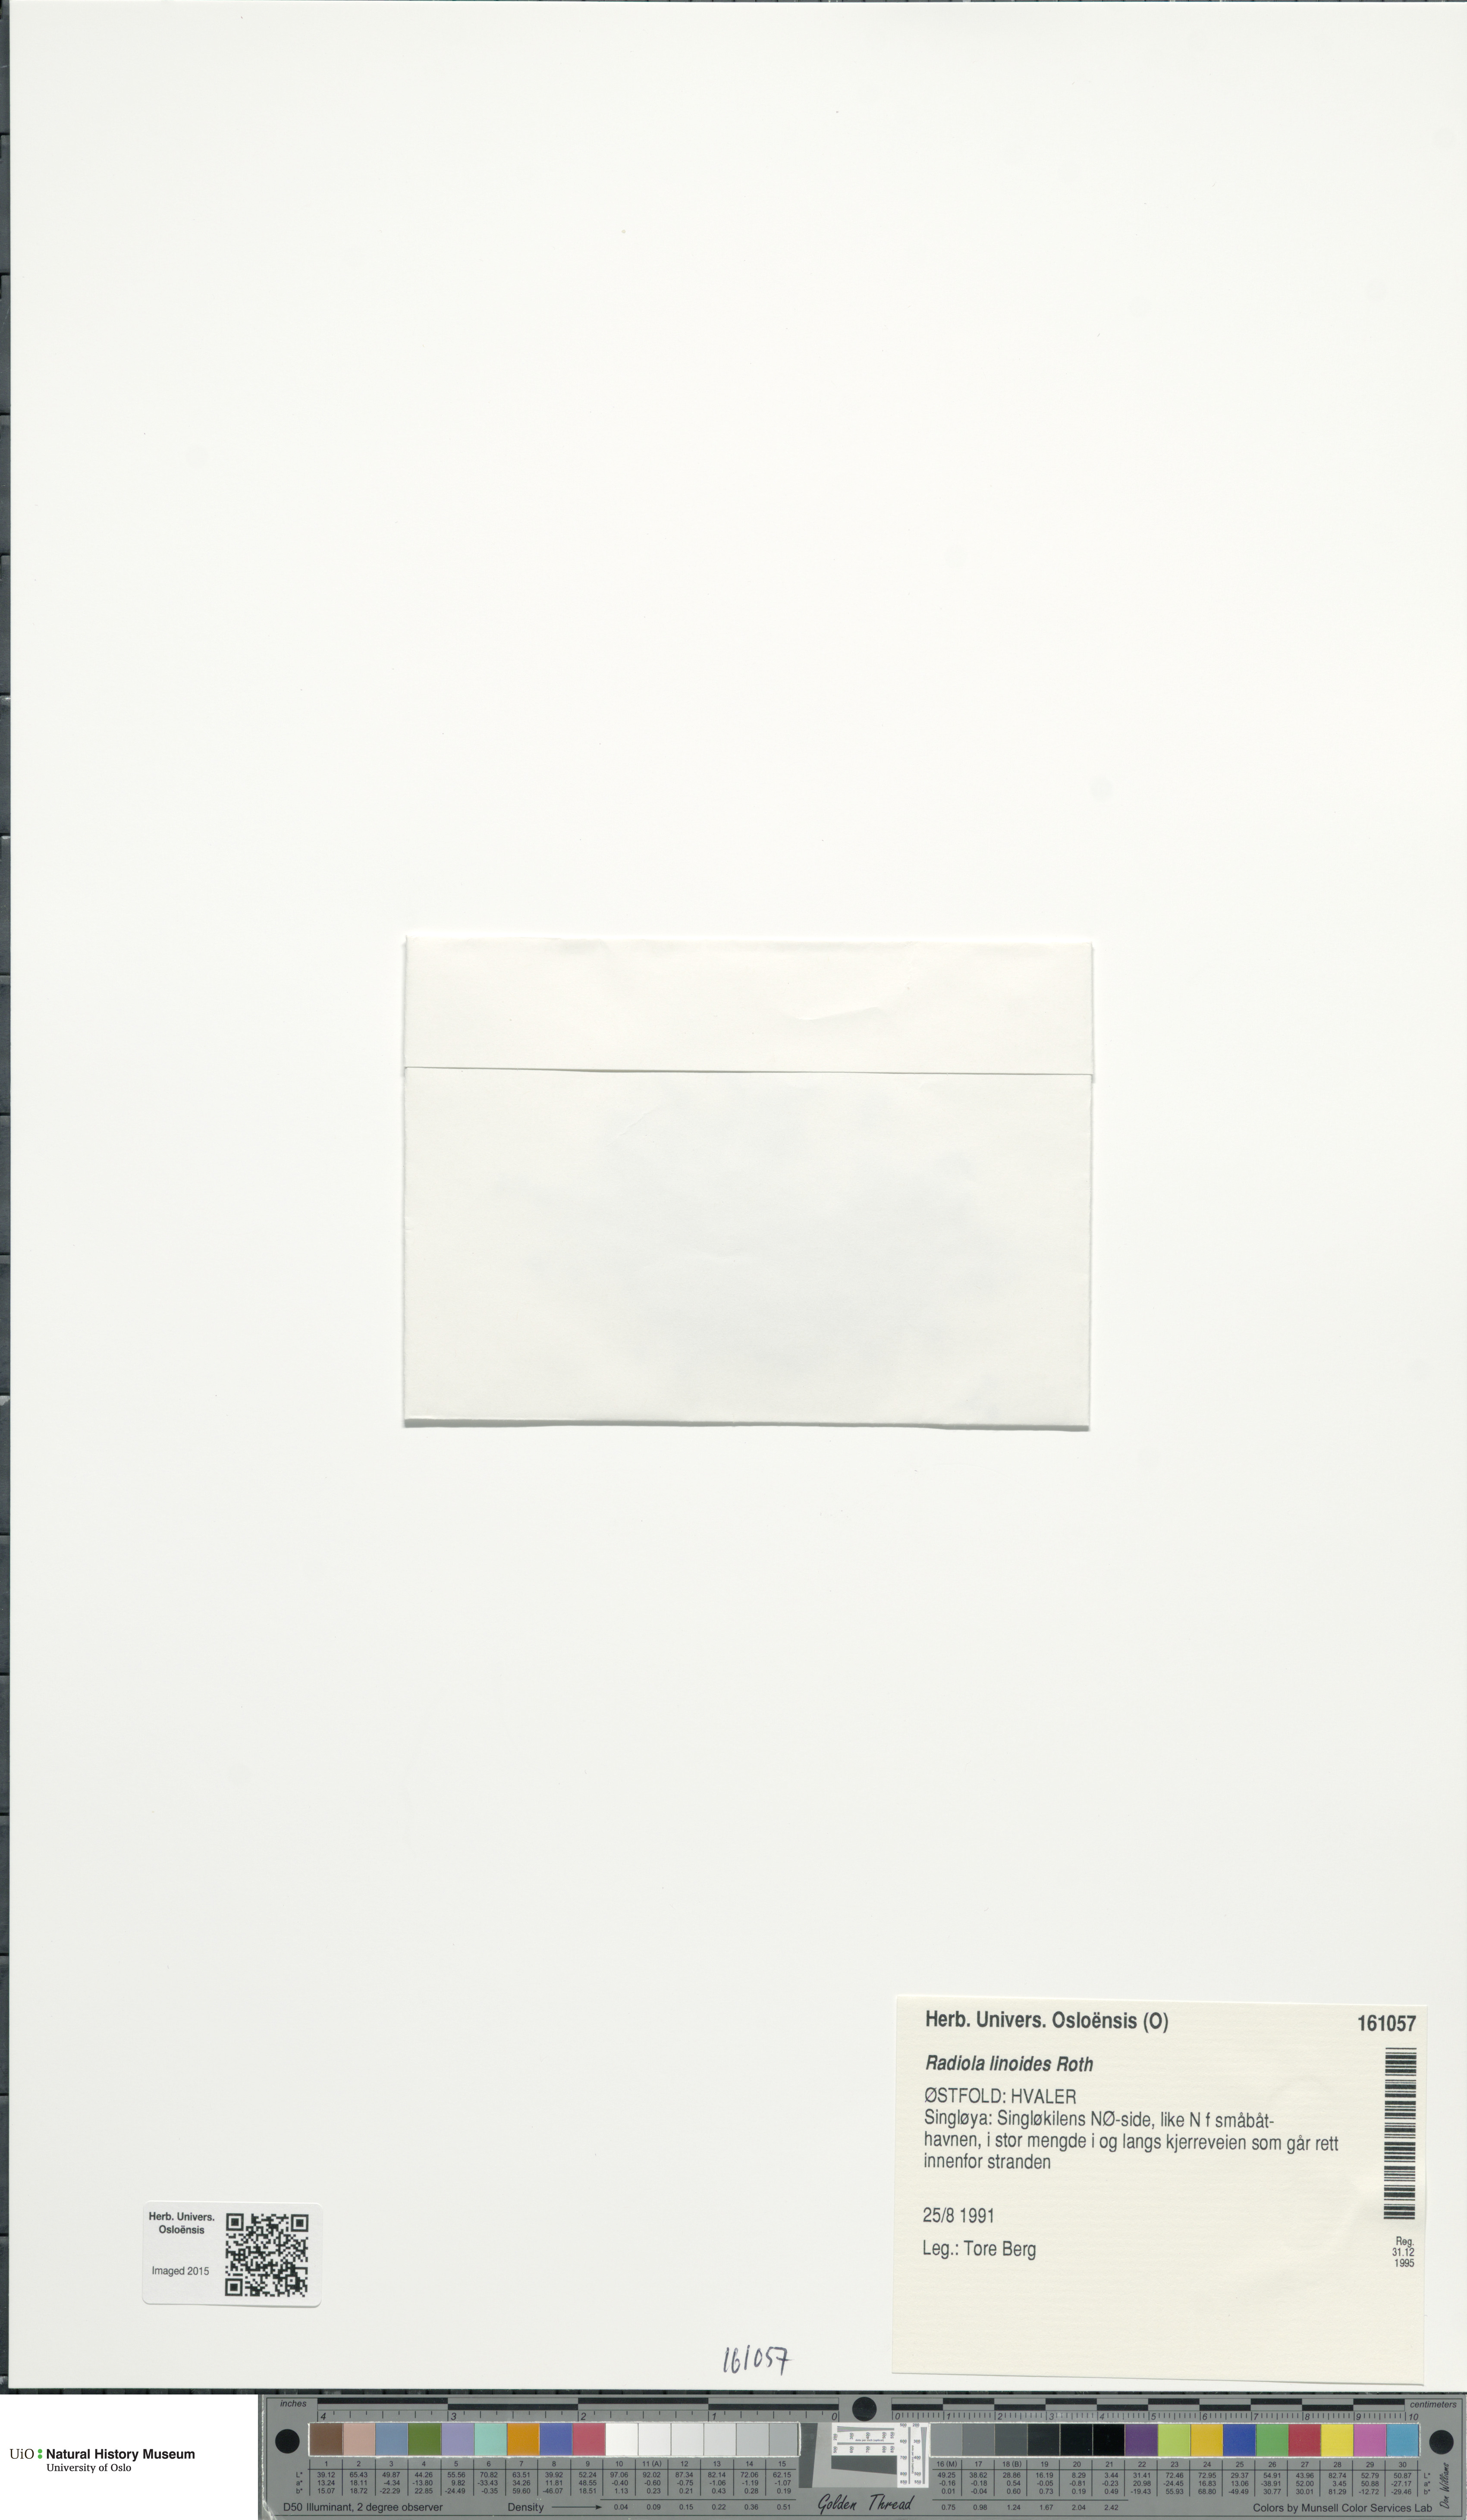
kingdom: Plantae
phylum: Tracheophyta
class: Magnoliopsida
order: Malpighiales
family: Linaceae
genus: Radiola
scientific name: Radiola linoides
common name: Allseed
